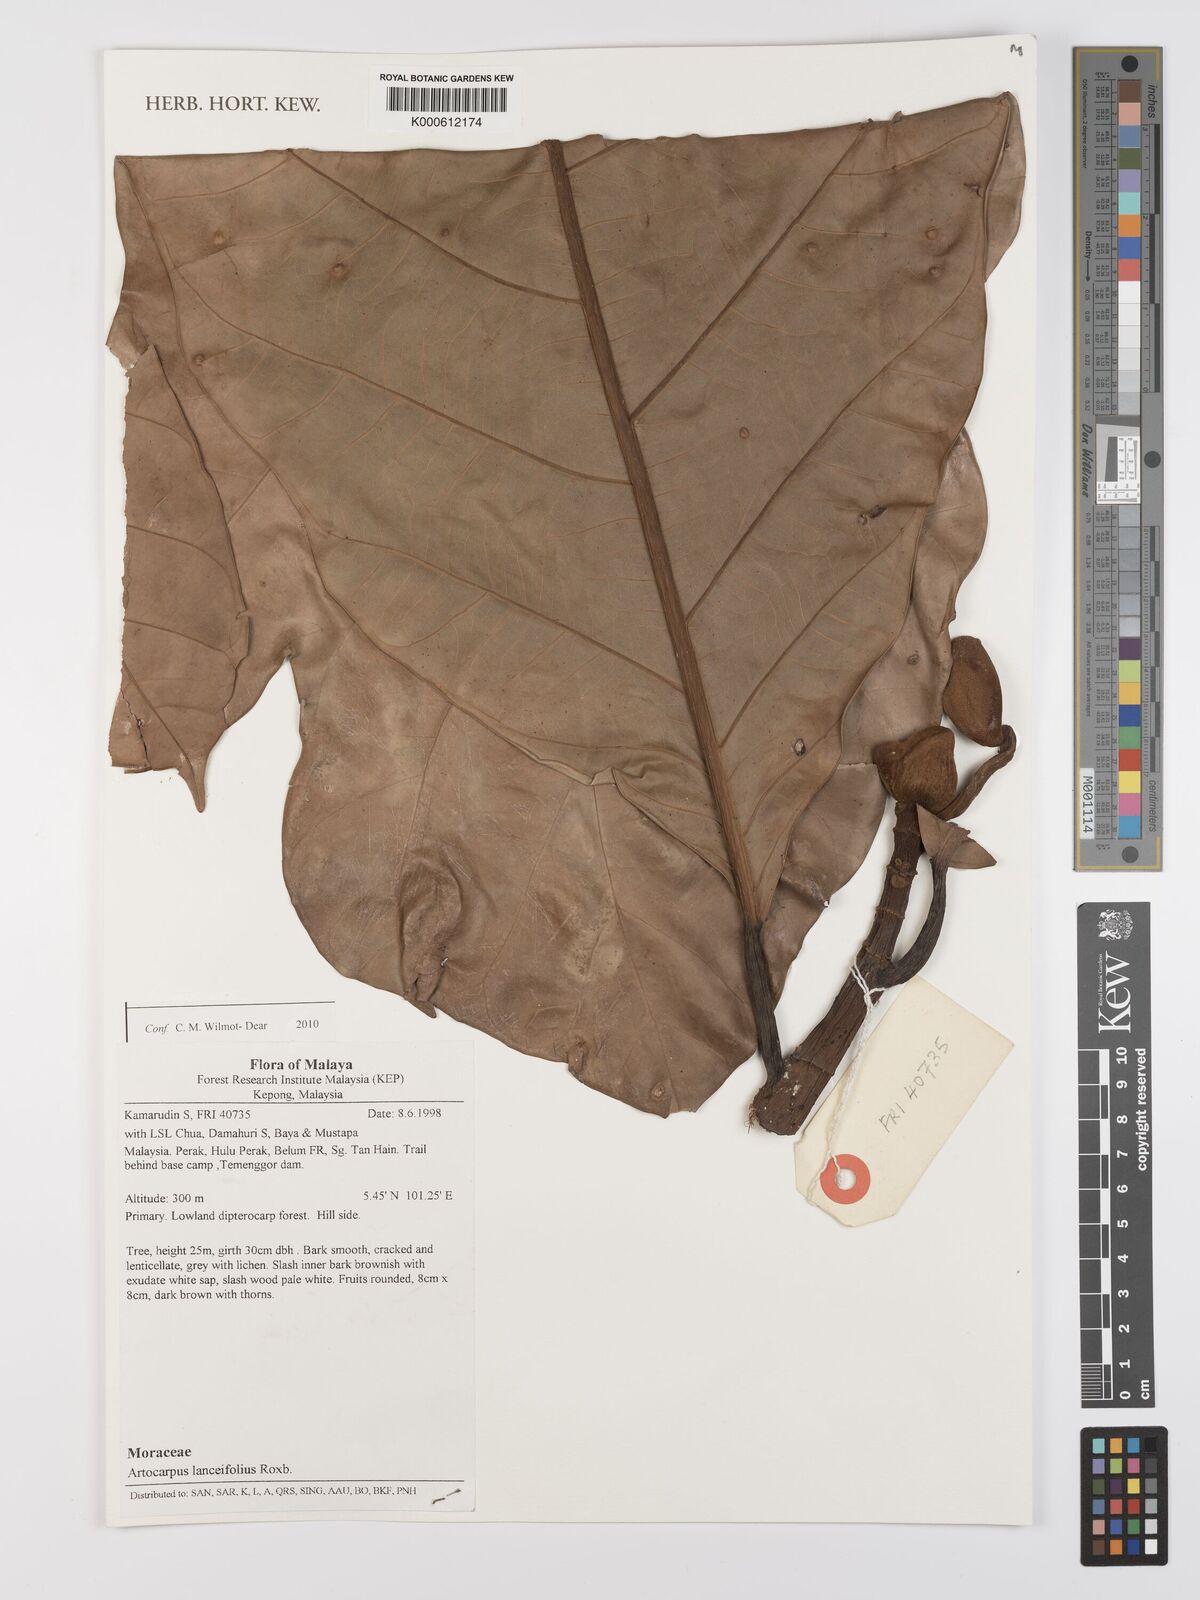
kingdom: Plantae
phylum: Tracheophyta
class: Magnoliopsida
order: Rosales
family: Moraceae
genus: Artocarpus
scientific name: Artocarpus lanceifolius
